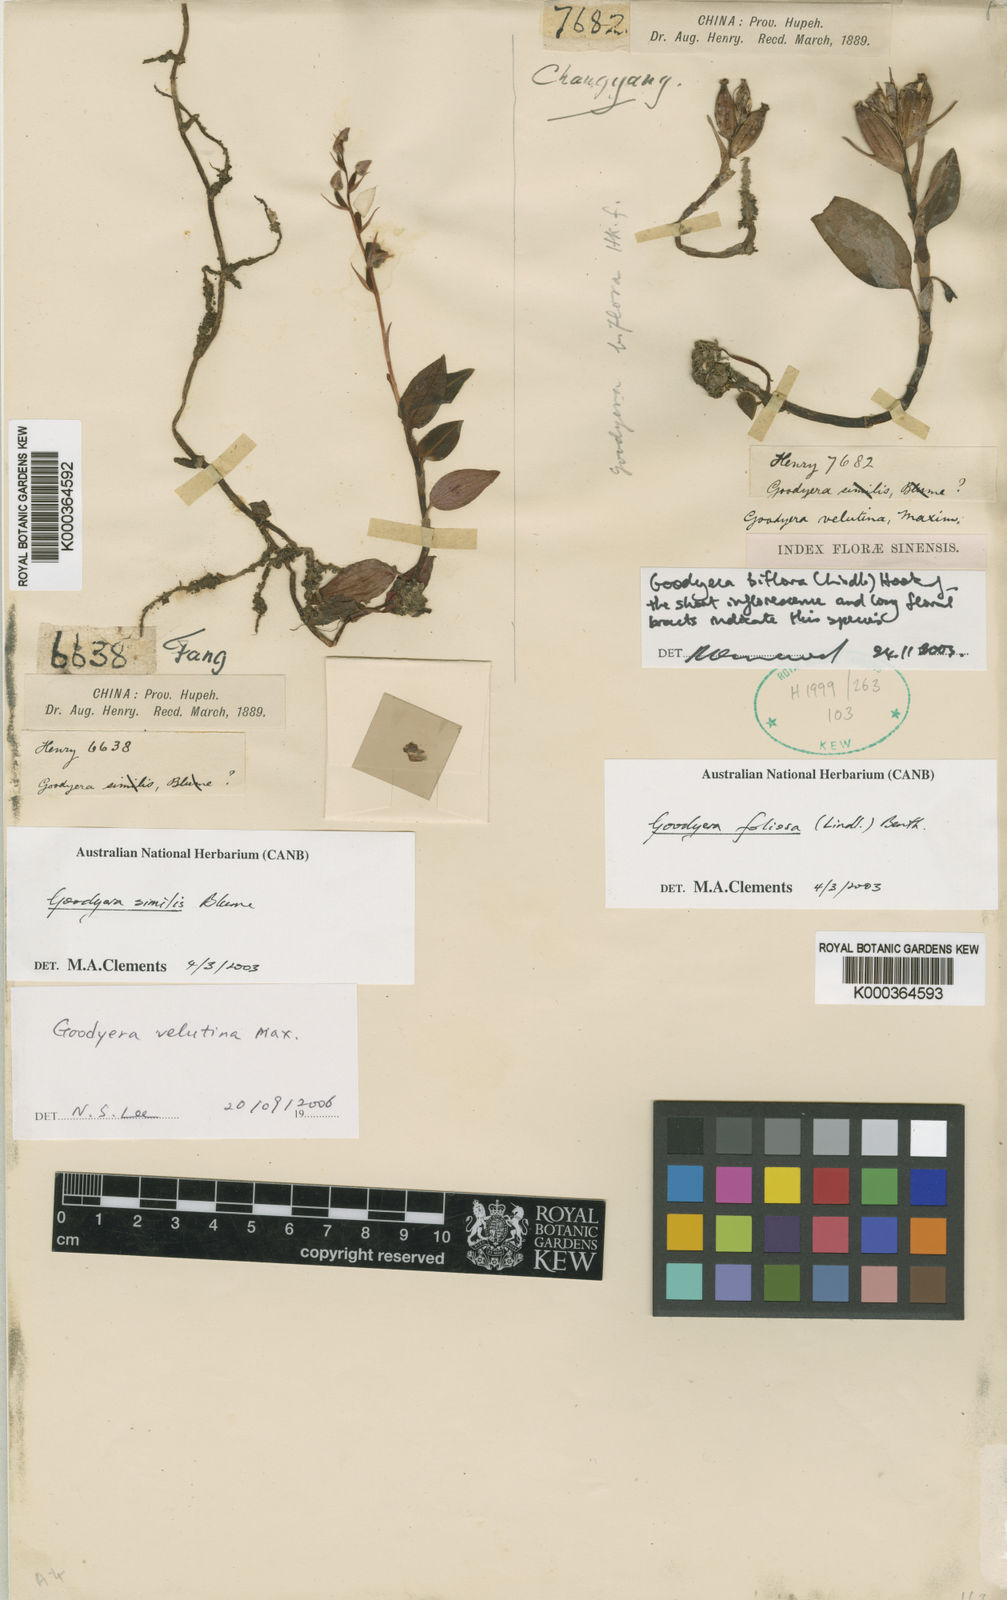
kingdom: Plantae
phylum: Tracheophyta
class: Liliopsida
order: Asparagales
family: Orchidaceae
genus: Goodyera
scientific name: Goodyera
